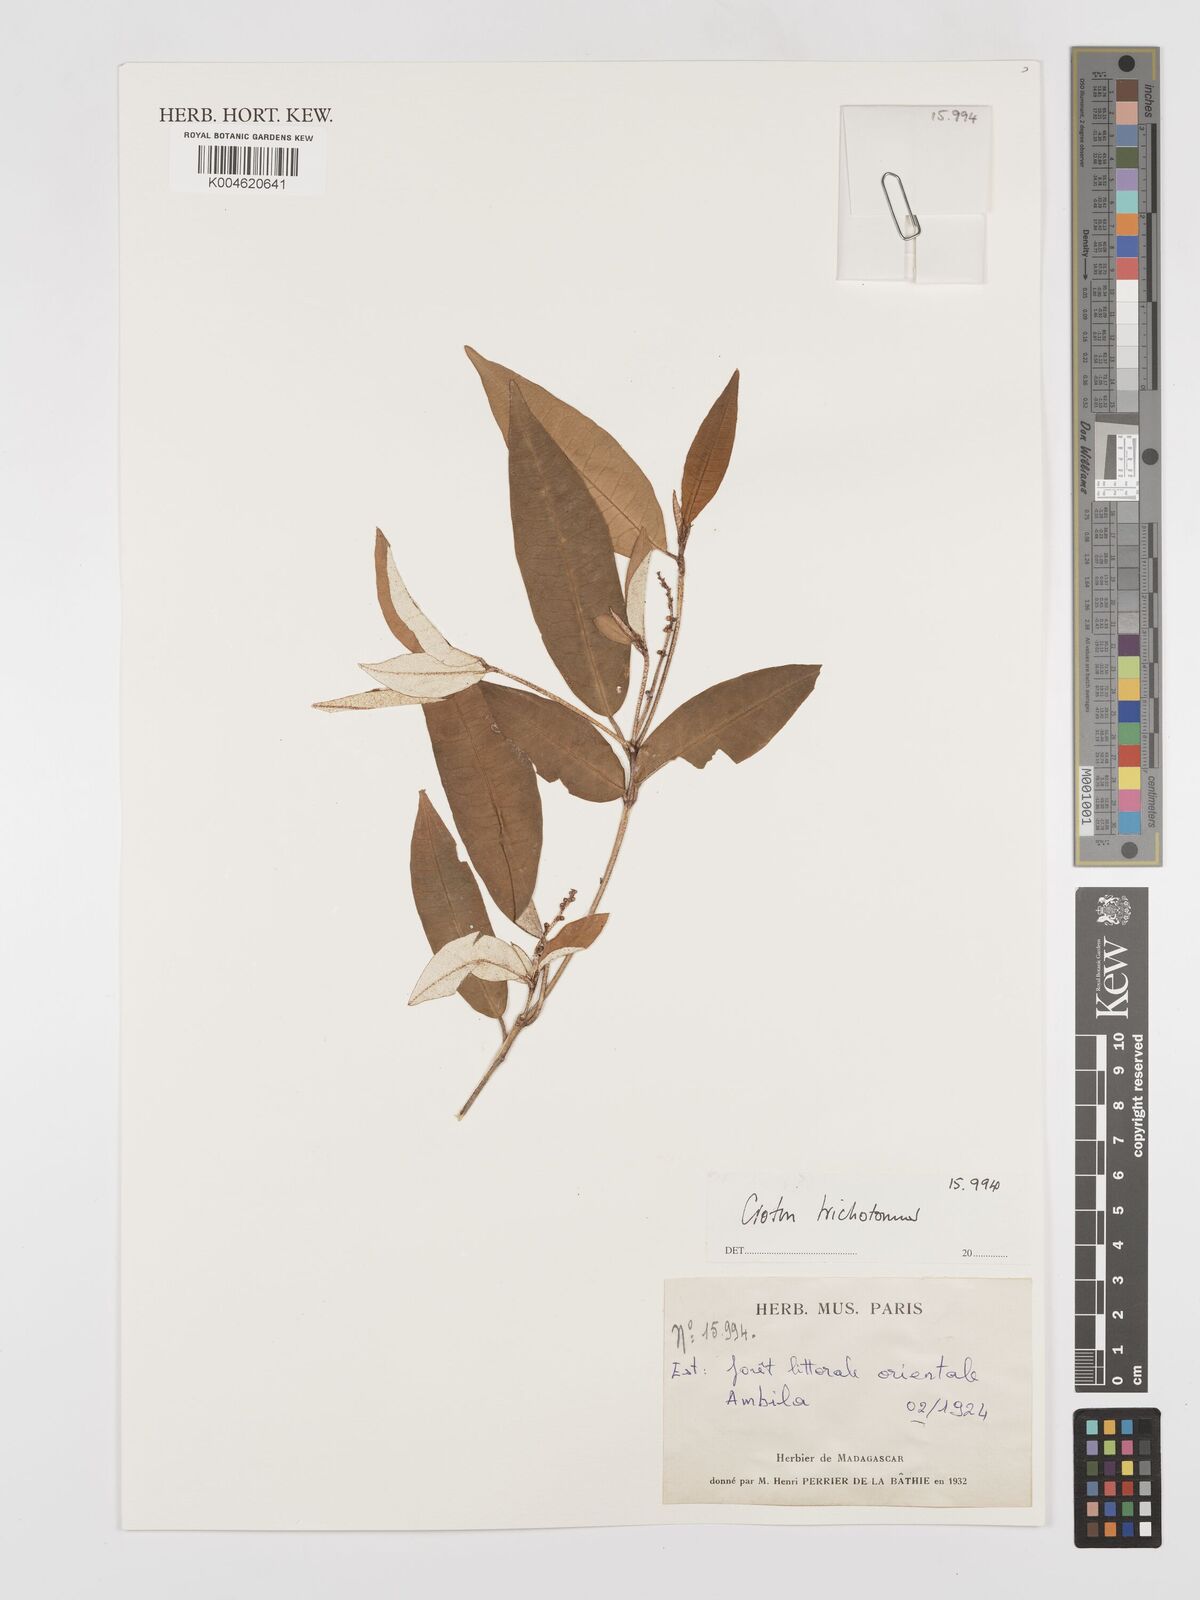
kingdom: Plantae
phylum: Tracheophyta
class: Magnoliopsida
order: Malpighiales
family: Euphorbiaceae
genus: Croton
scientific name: Croton trichotomus
